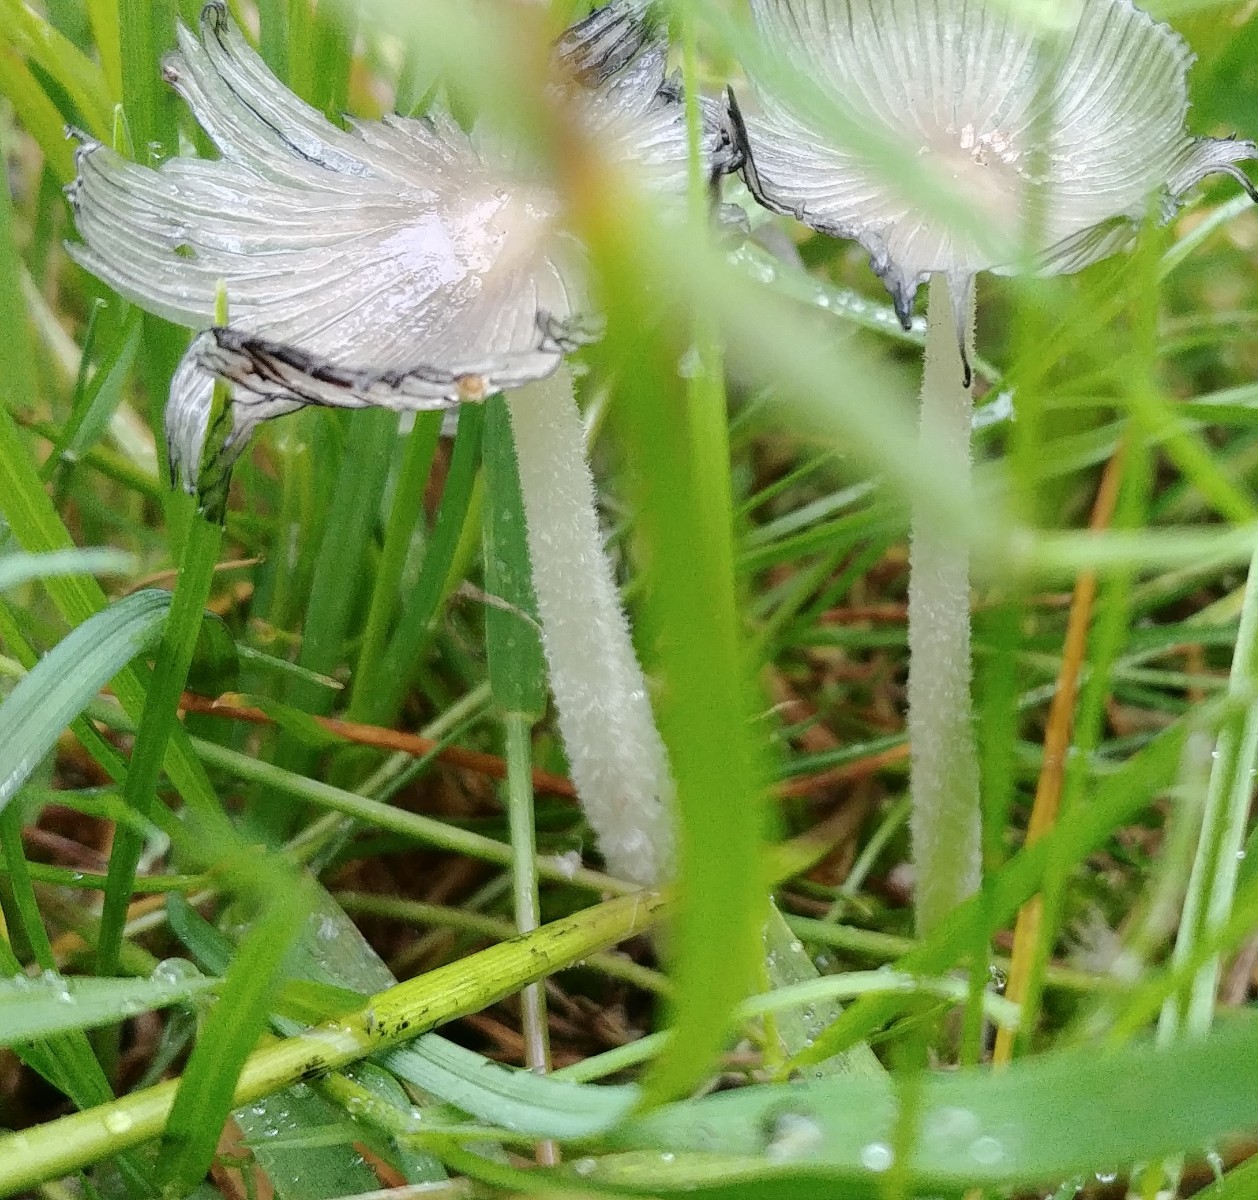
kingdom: Fungi
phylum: Basidiomycota
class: Agaricomycetes
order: Agaricales
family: Psathyrellaceae
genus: Coprinopsis
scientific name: Coprinopsis lagopus
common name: dunstokket blækhat
